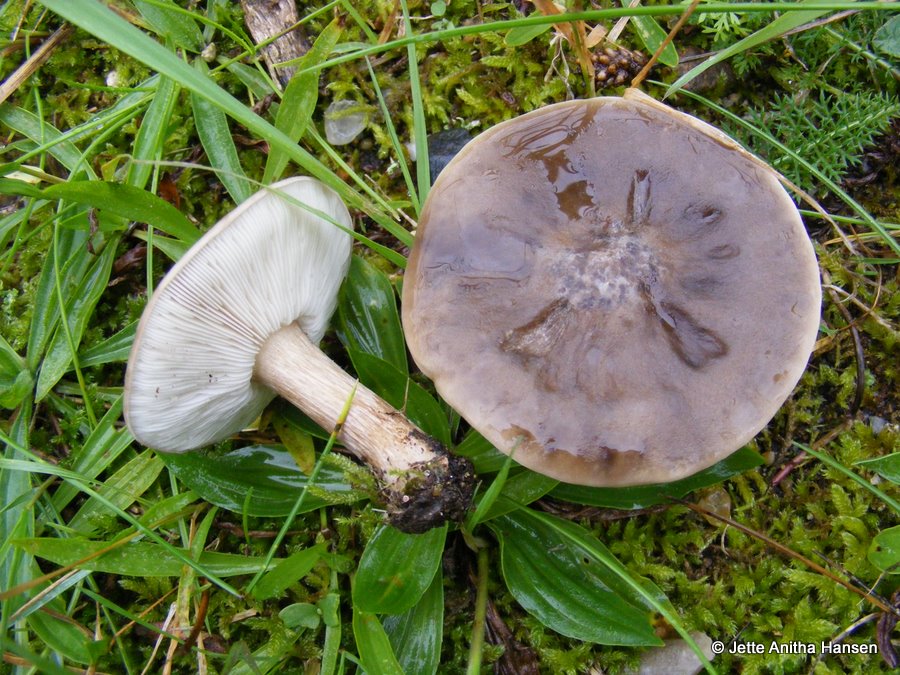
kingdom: Fungi
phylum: Basidiomycota
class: Agaricomycetes
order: Agaricales
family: Tricholomataceae
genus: Melanoleuca
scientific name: Melanoleuca exscissa
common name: gusten munkehat
